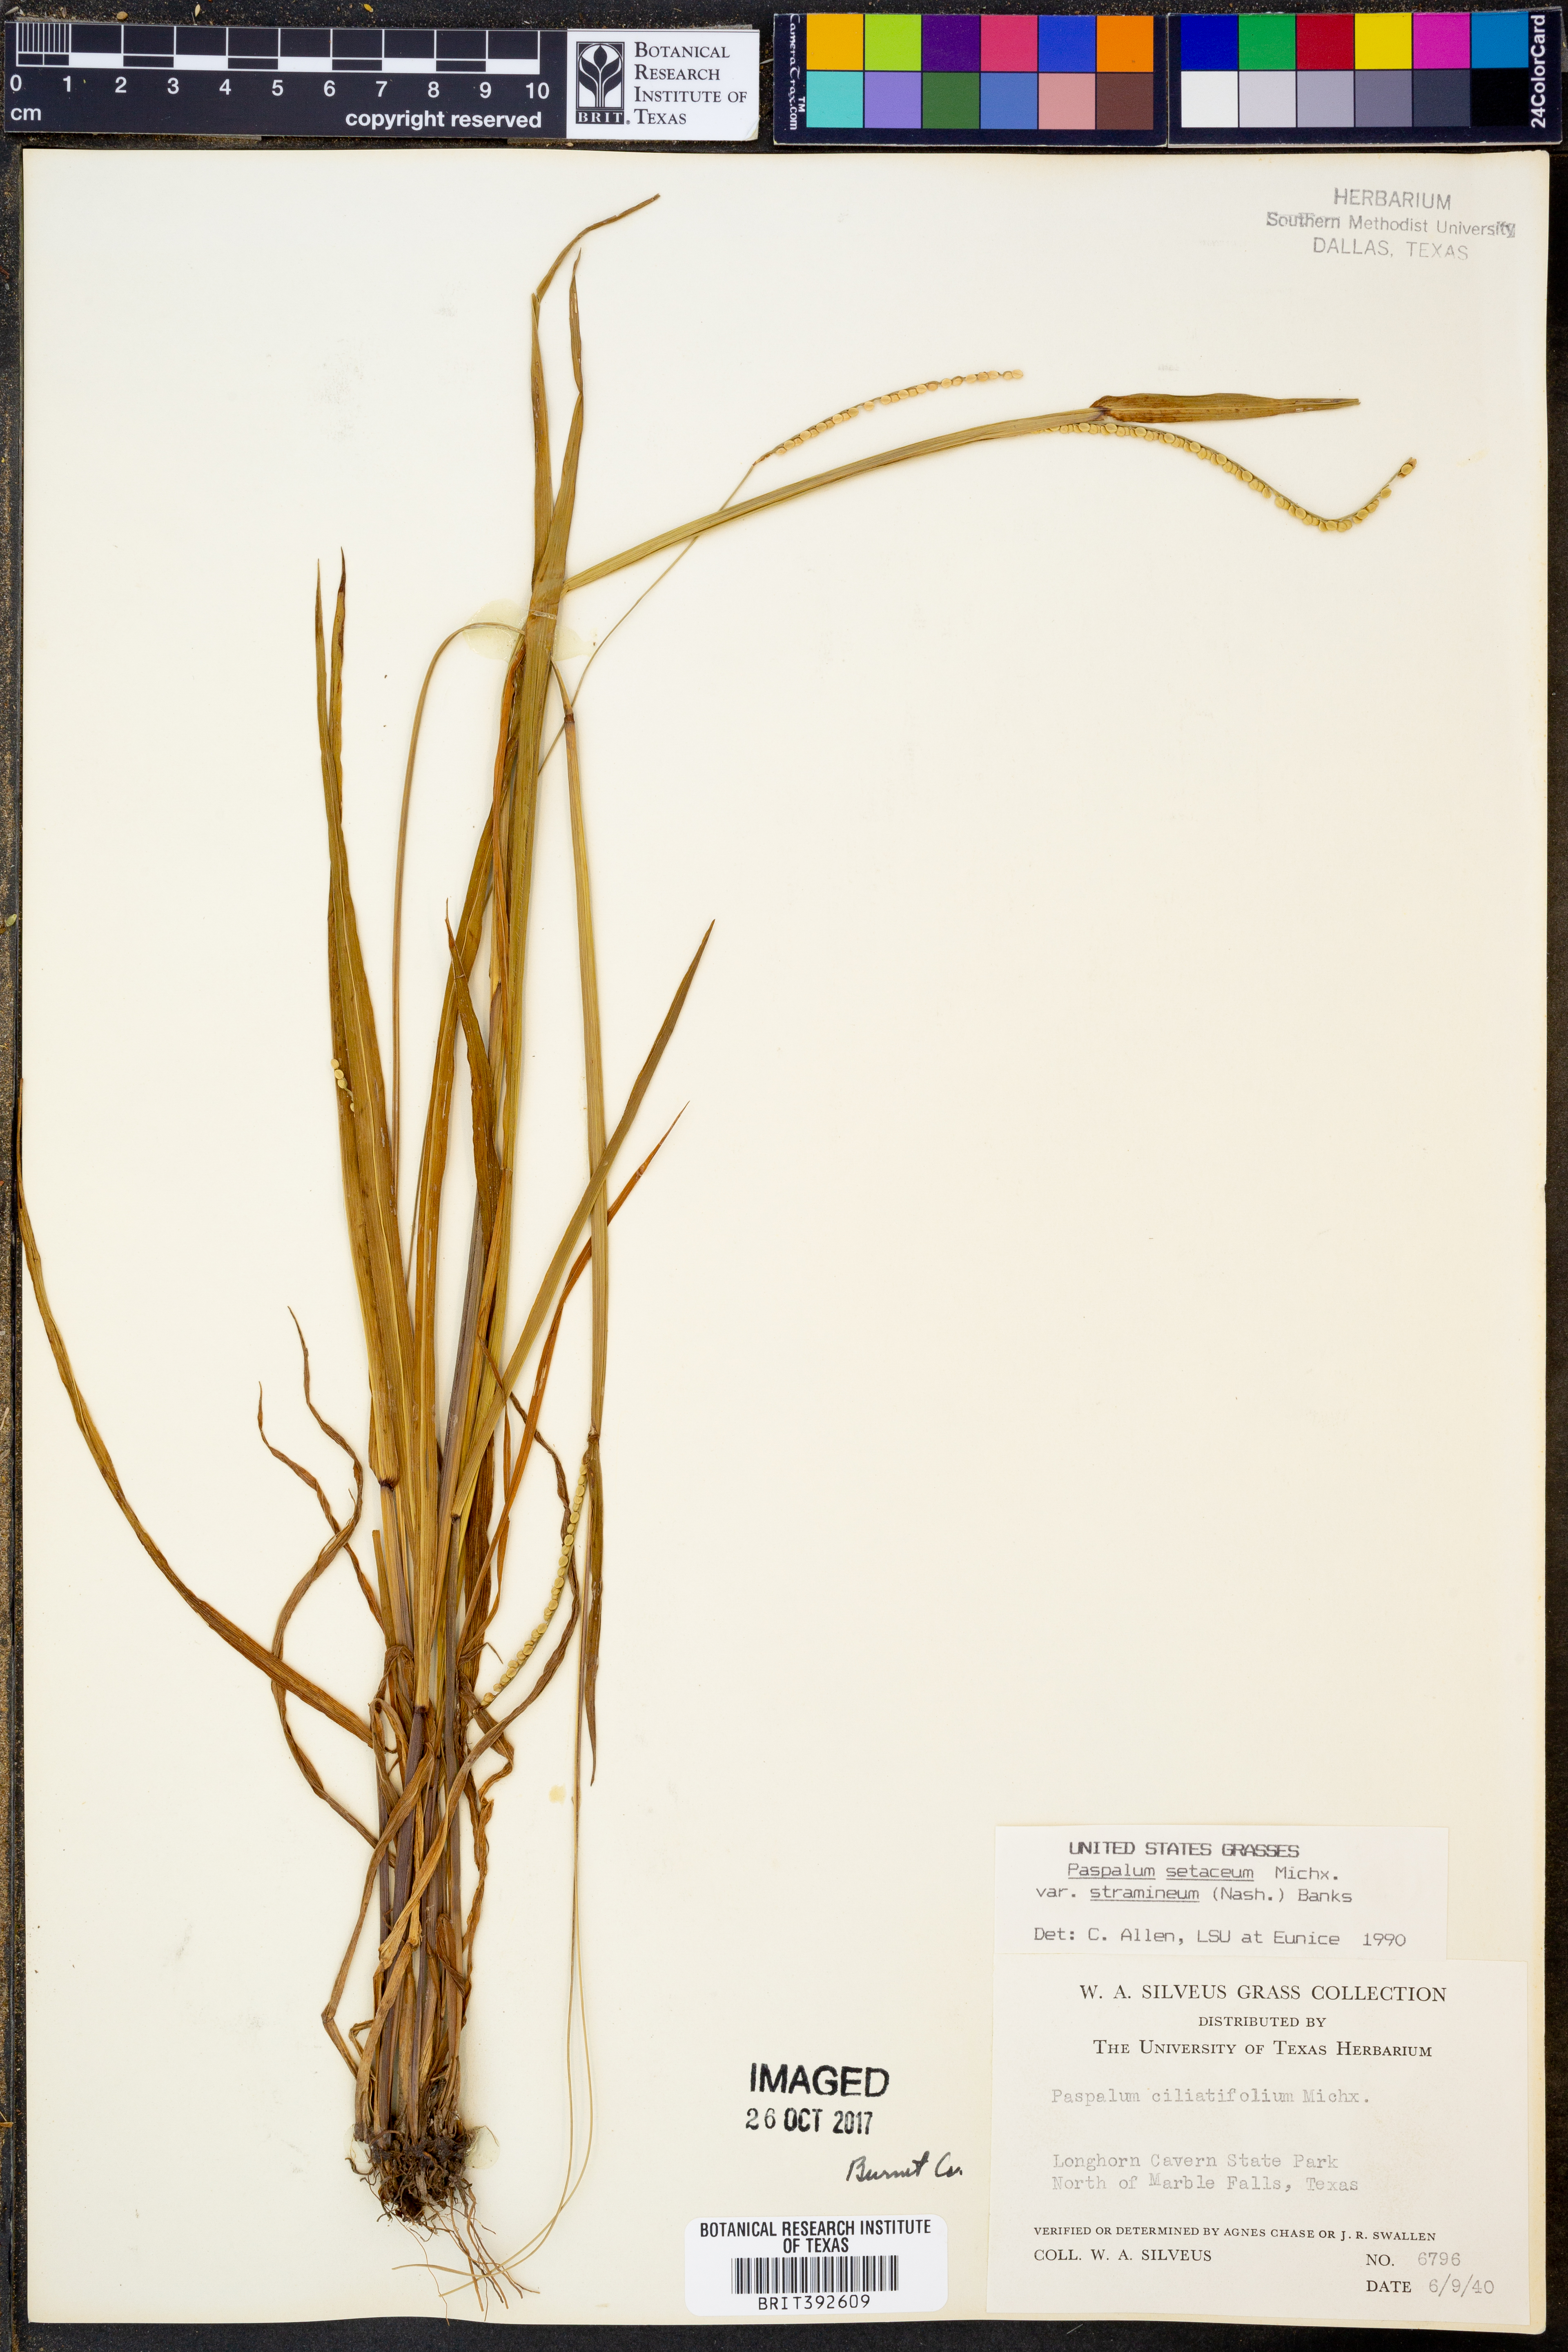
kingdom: Plantae
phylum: Tracheophyta
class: Liliopsida
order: Poales
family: Poaceae
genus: Paspalum
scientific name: Paspalum setaceum
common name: Slender paspalum
